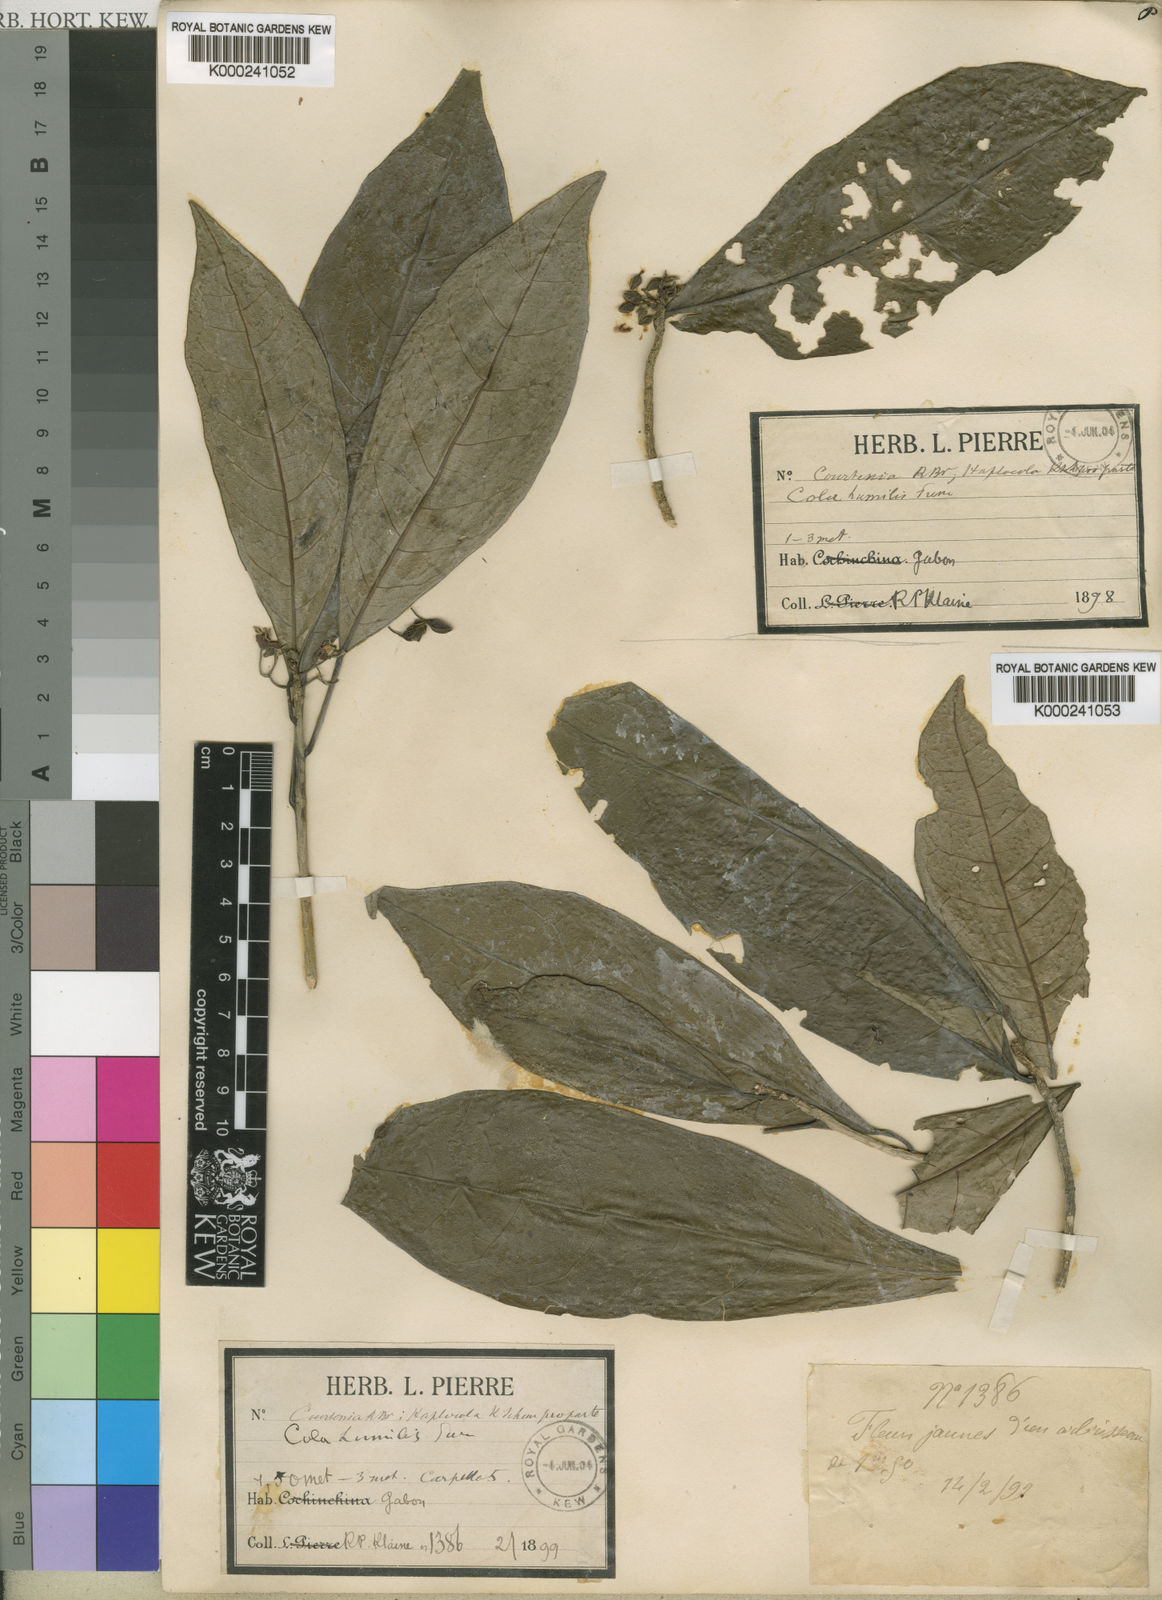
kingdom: Plantae
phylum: Tracheophyta
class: Magnoliopsida
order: Malvales
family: Malvaceae
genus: Cola
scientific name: Cola heterophylla
